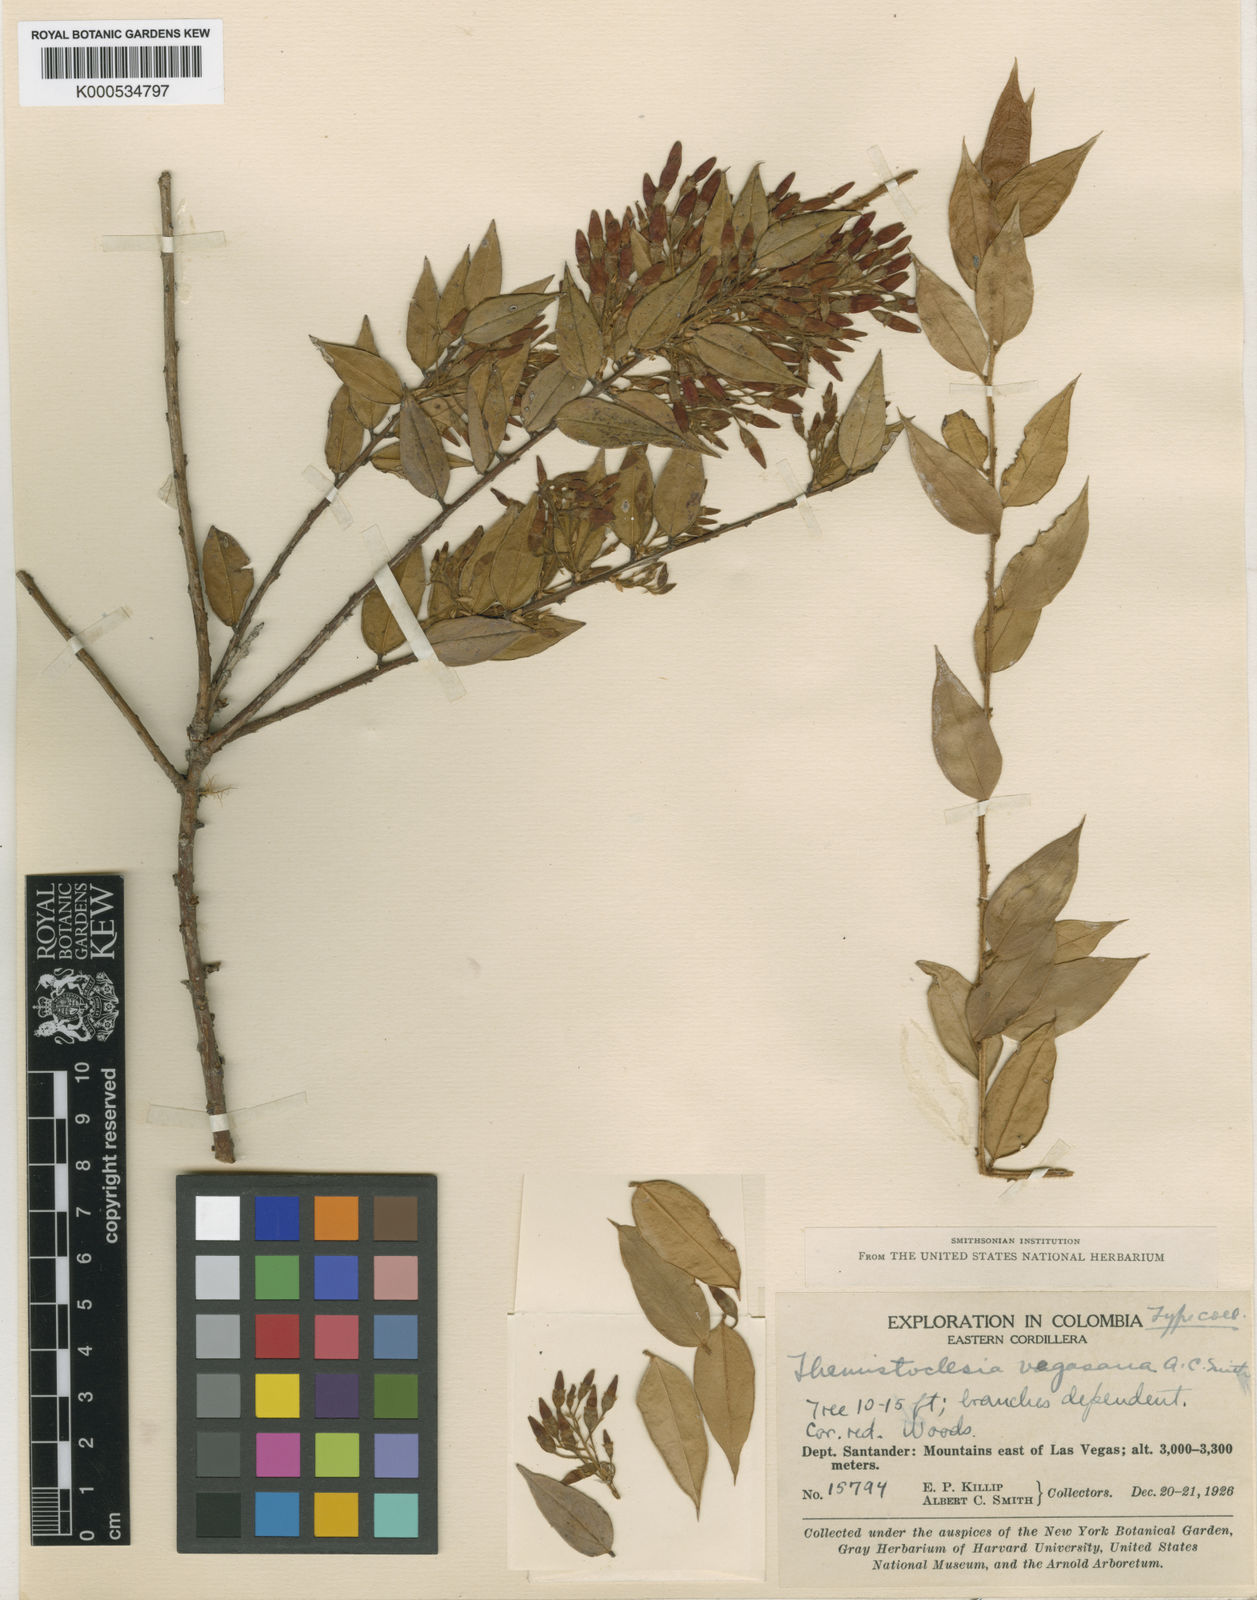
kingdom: Plantae
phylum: Tracheophyta
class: Magnoliopsida
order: Ericales
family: Ericaceae
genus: Themistoclesia
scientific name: Themistoclesia vegasana
